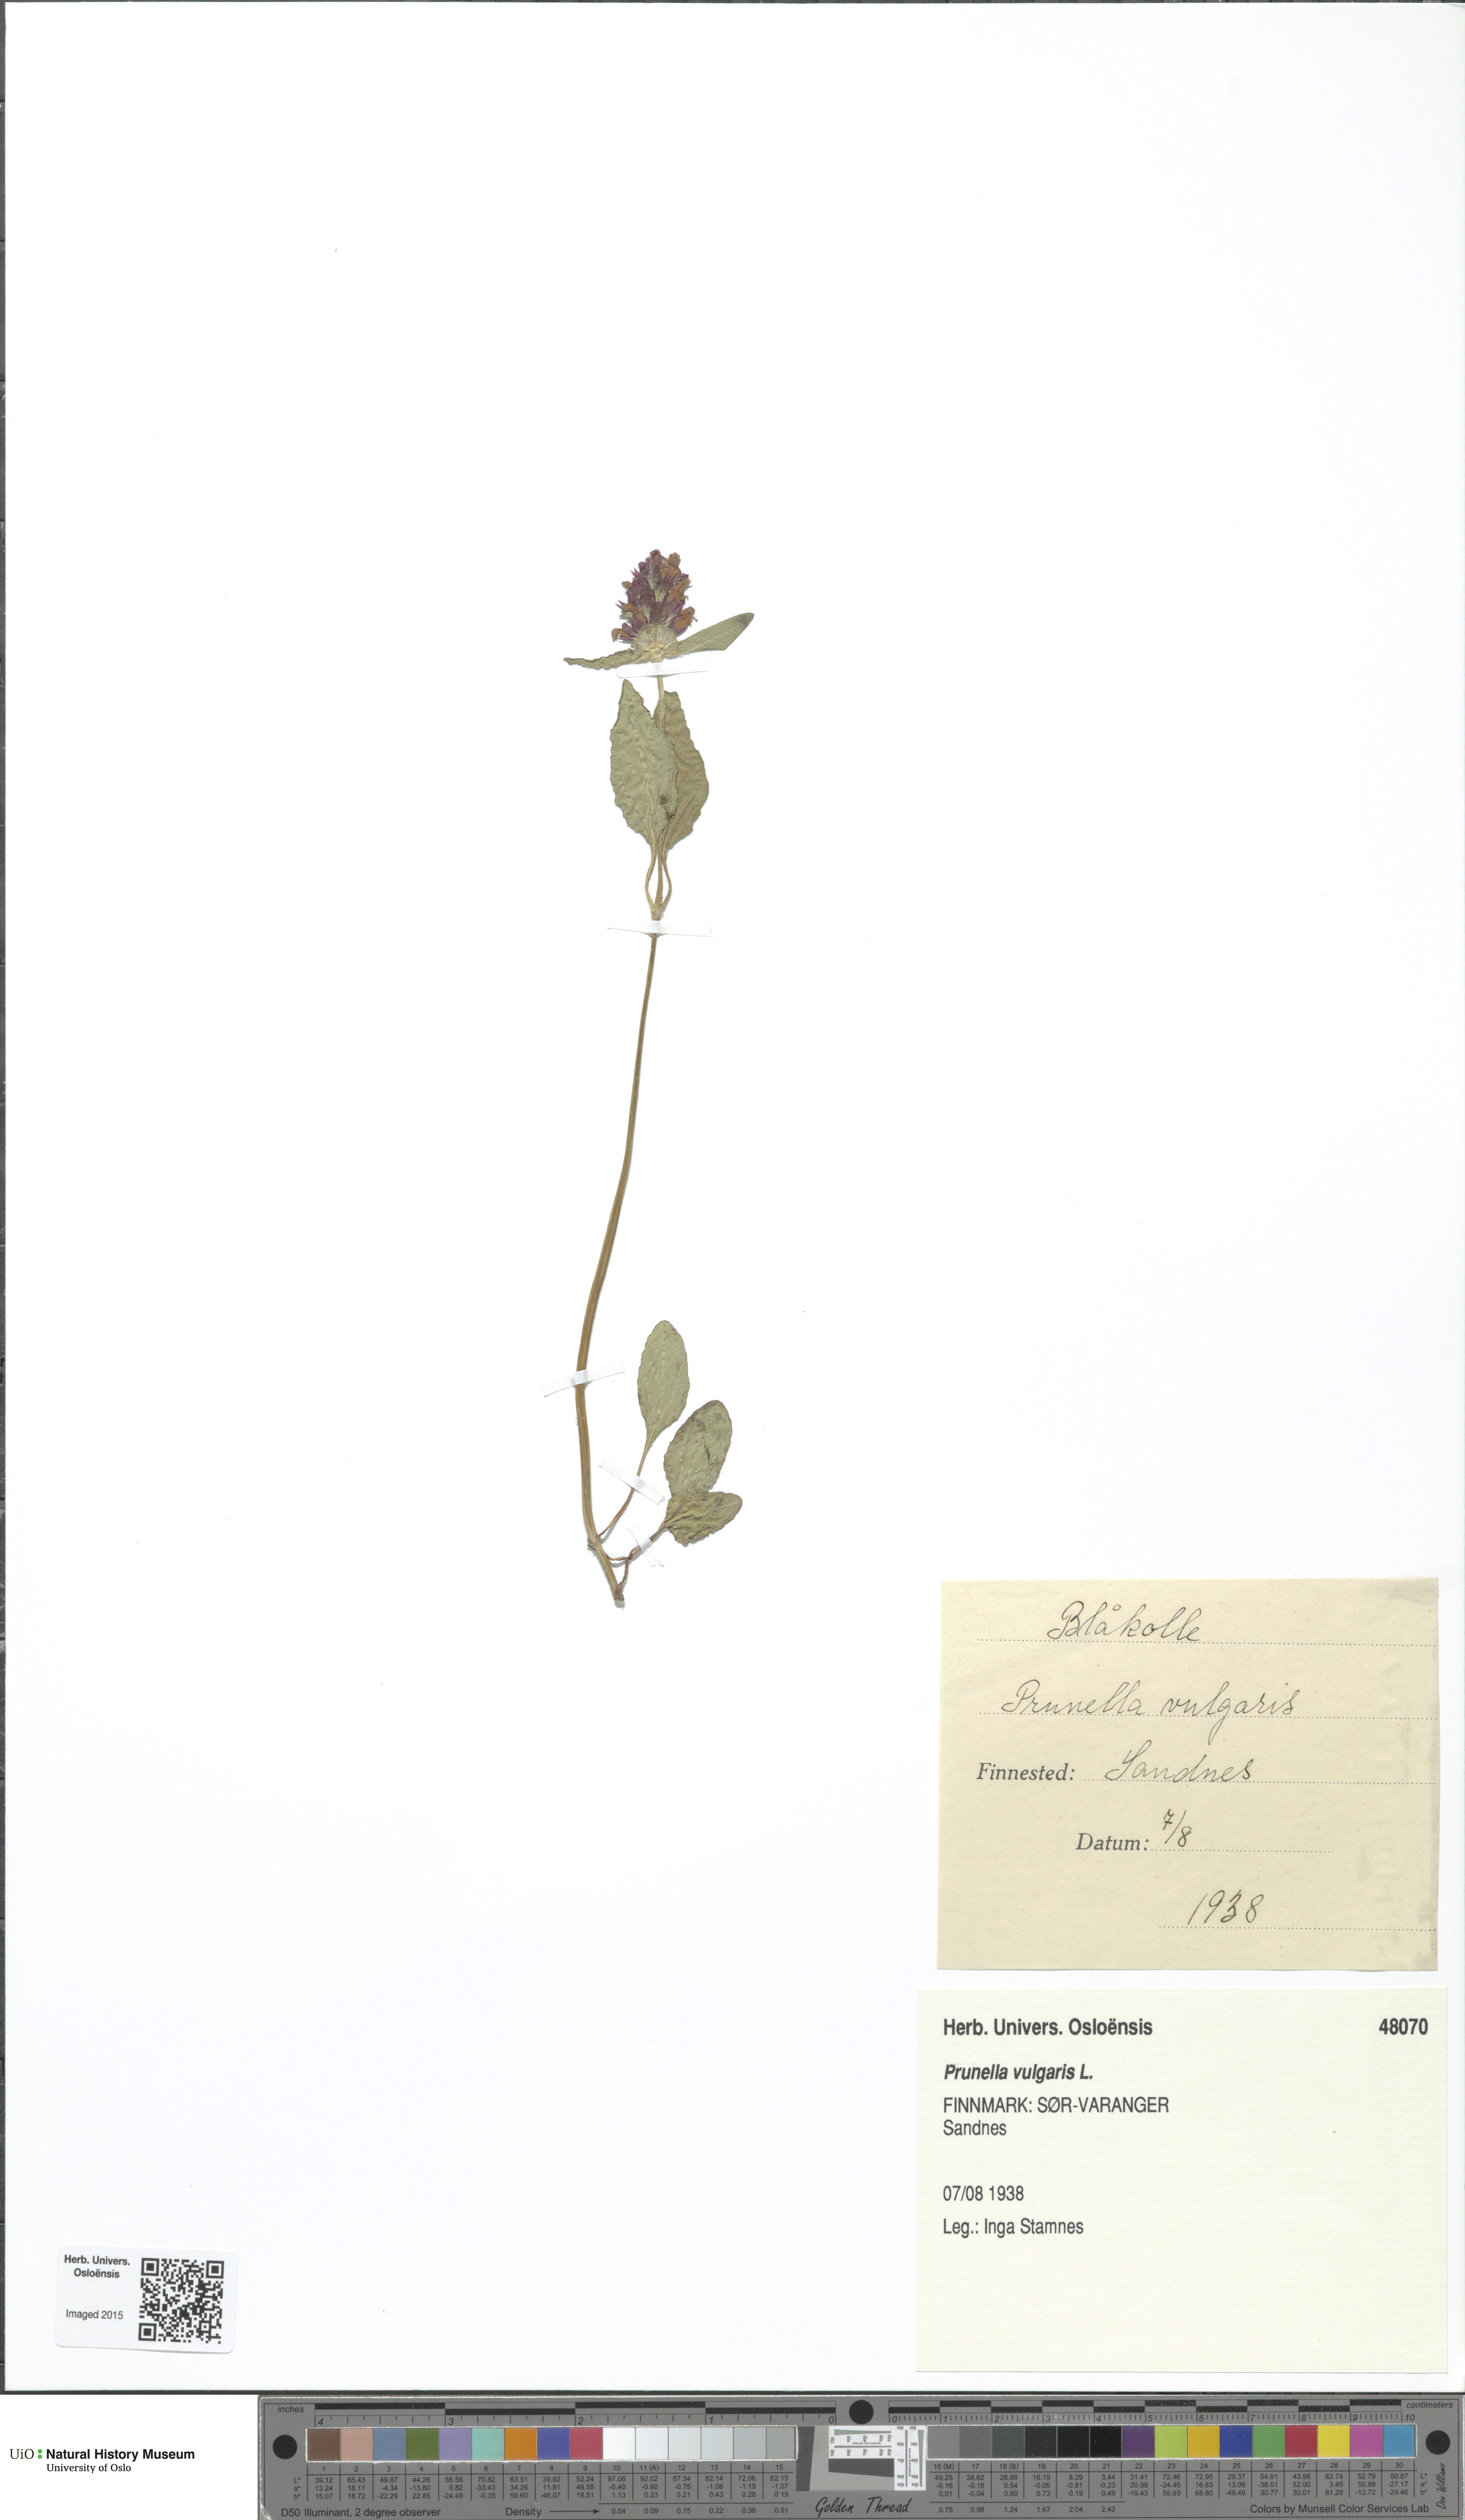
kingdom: Plantae
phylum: Tracheophyta
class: Magnoliopsida
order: Lamiales
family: Lamiaceae
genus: Prunella
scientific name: Prunella vulgaris
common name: Heal-all
